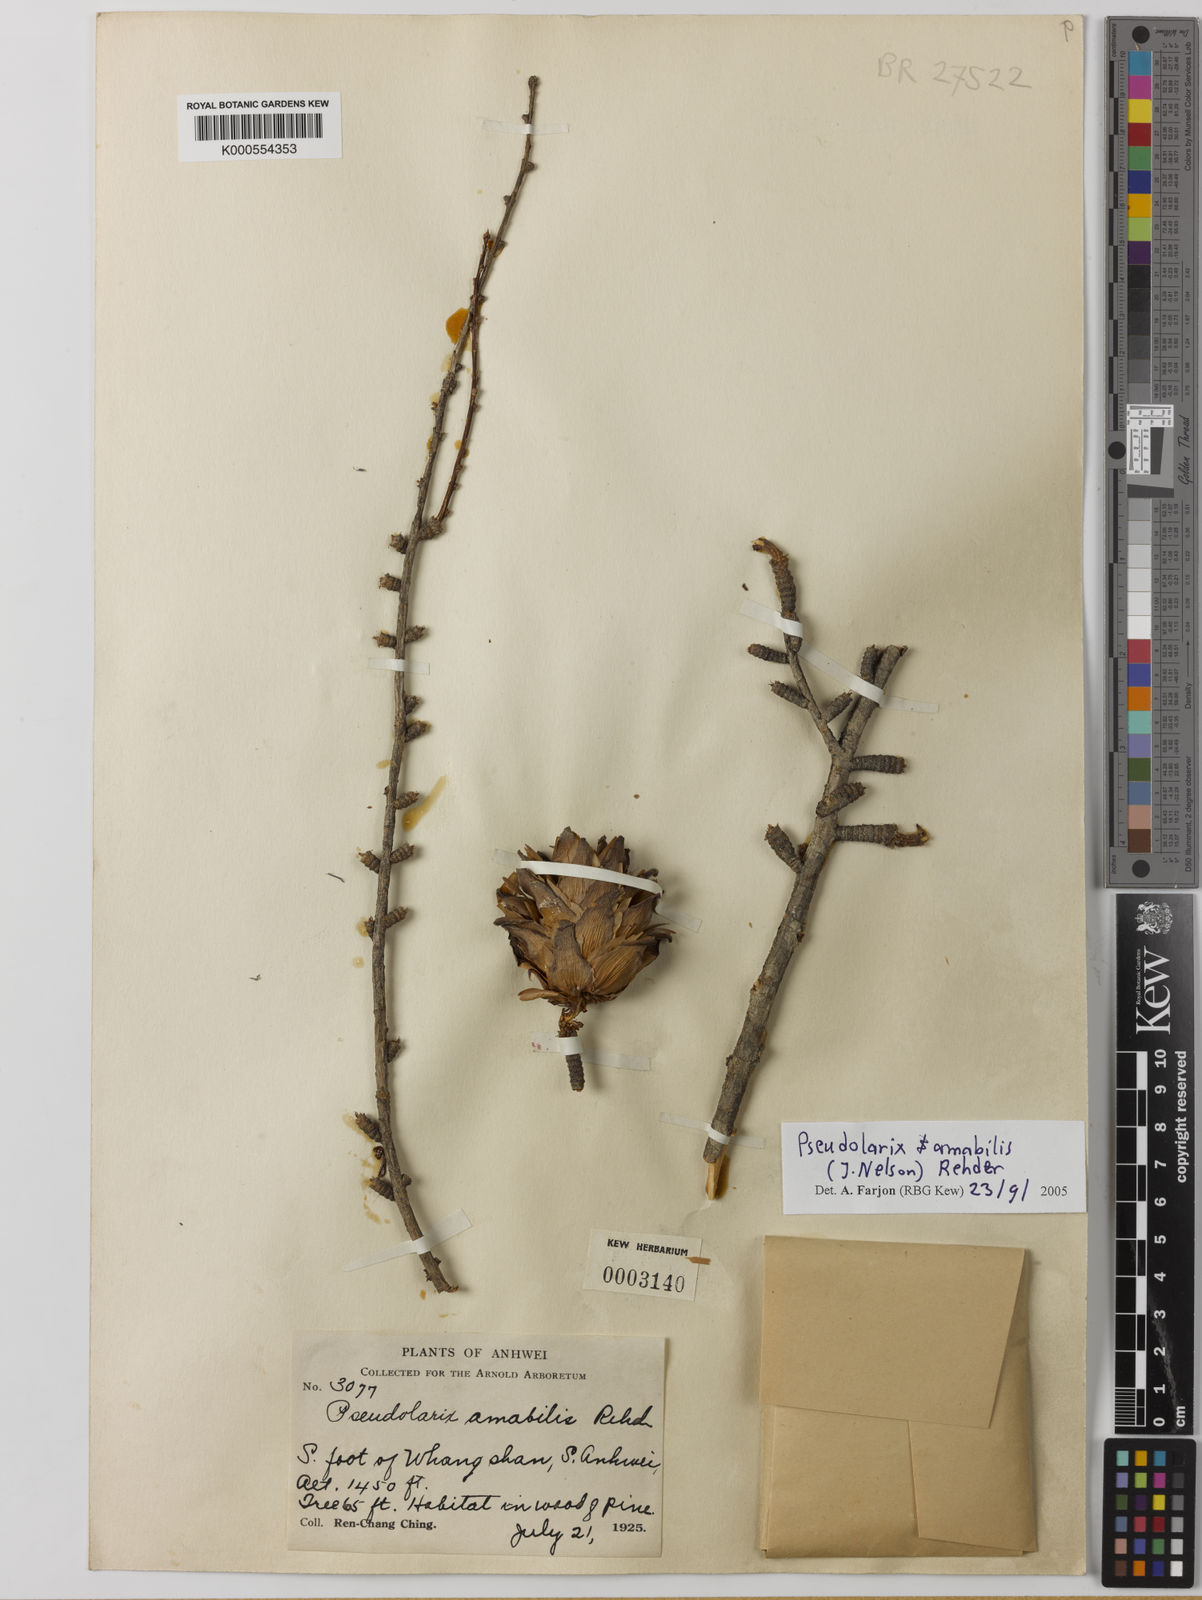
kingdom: Plantae
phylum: Tracheophyta
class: Pinopsida
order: Pinales
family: Pinaceae
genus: Pseudolarix
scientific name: Pseudolarix amabilis
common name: Chinese golden larch
